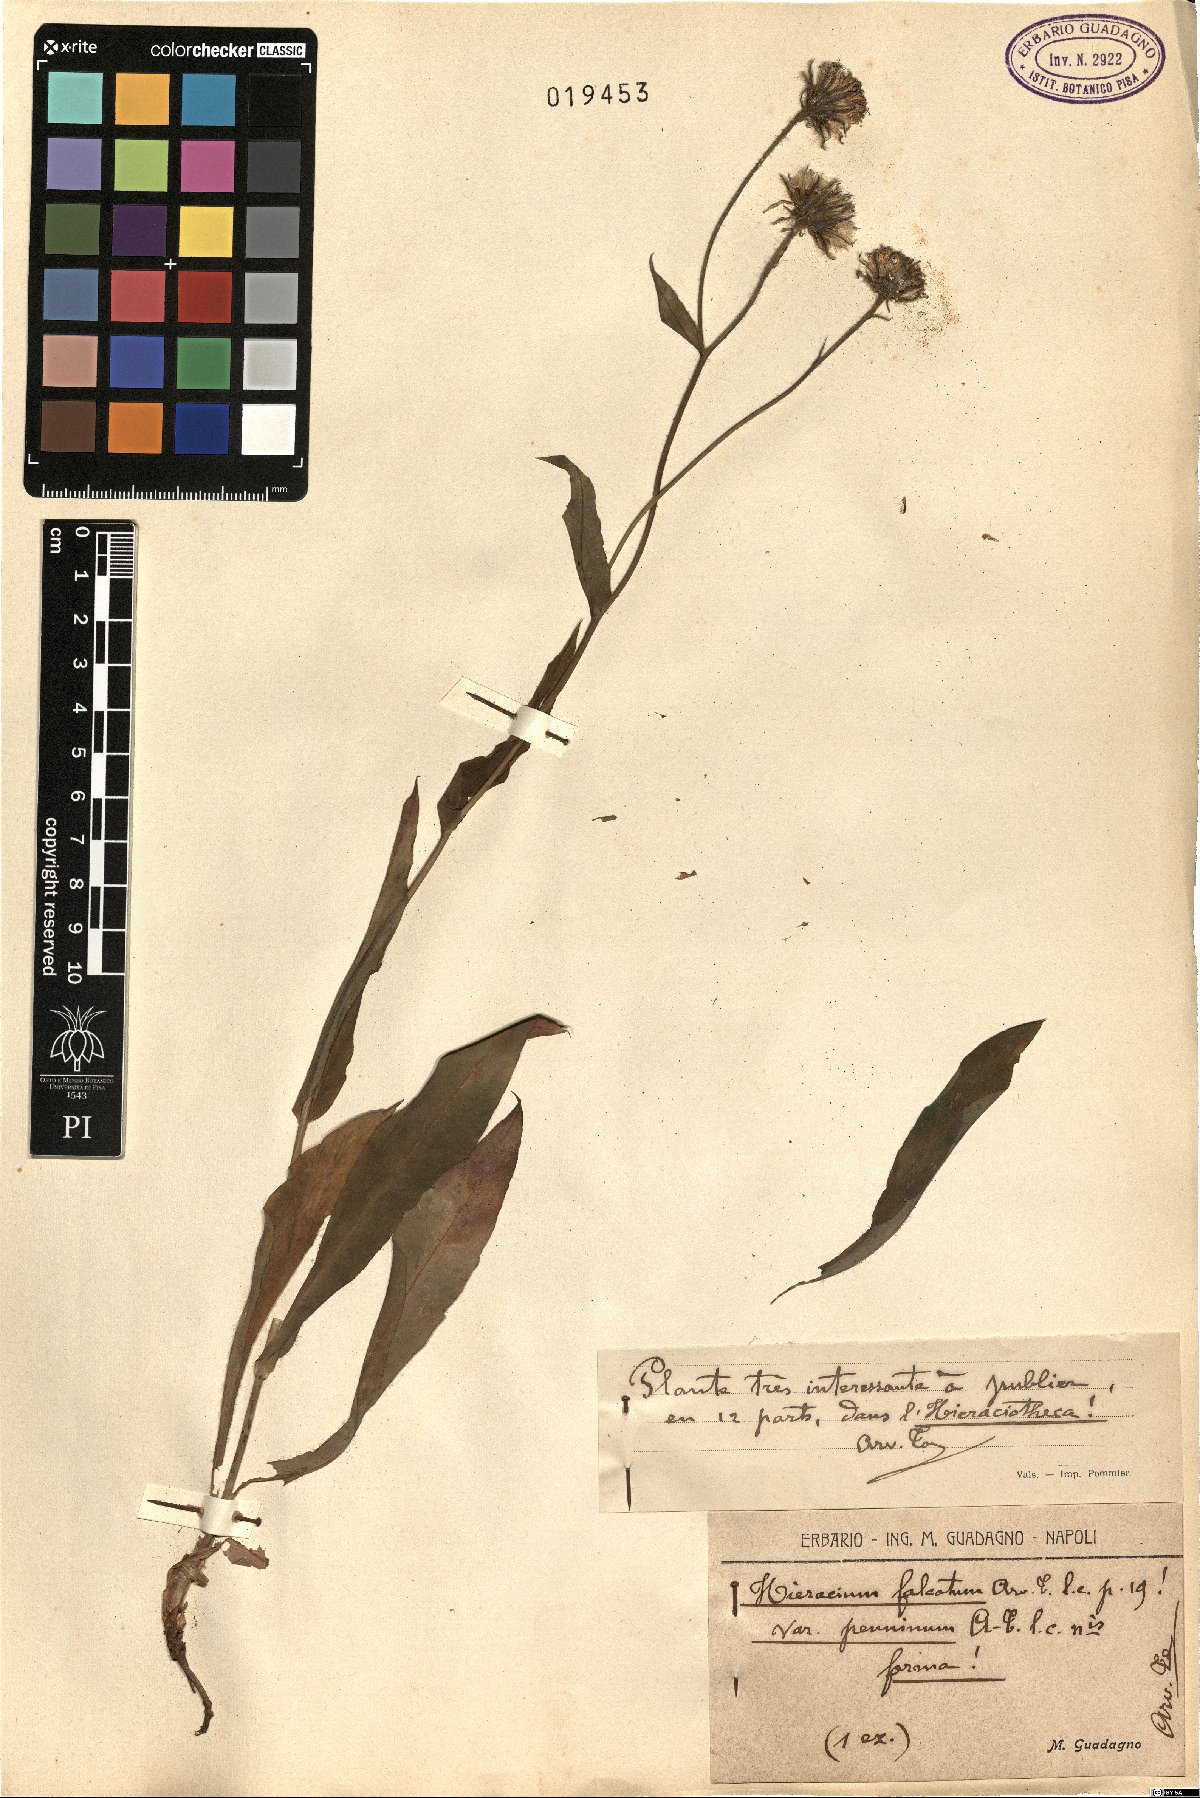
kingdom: Plantae
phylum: Tracheophyta
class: Magnoliopsida
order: Asterales
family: Asteraceae
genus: Hieracium
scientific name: Hieracium falcatum
